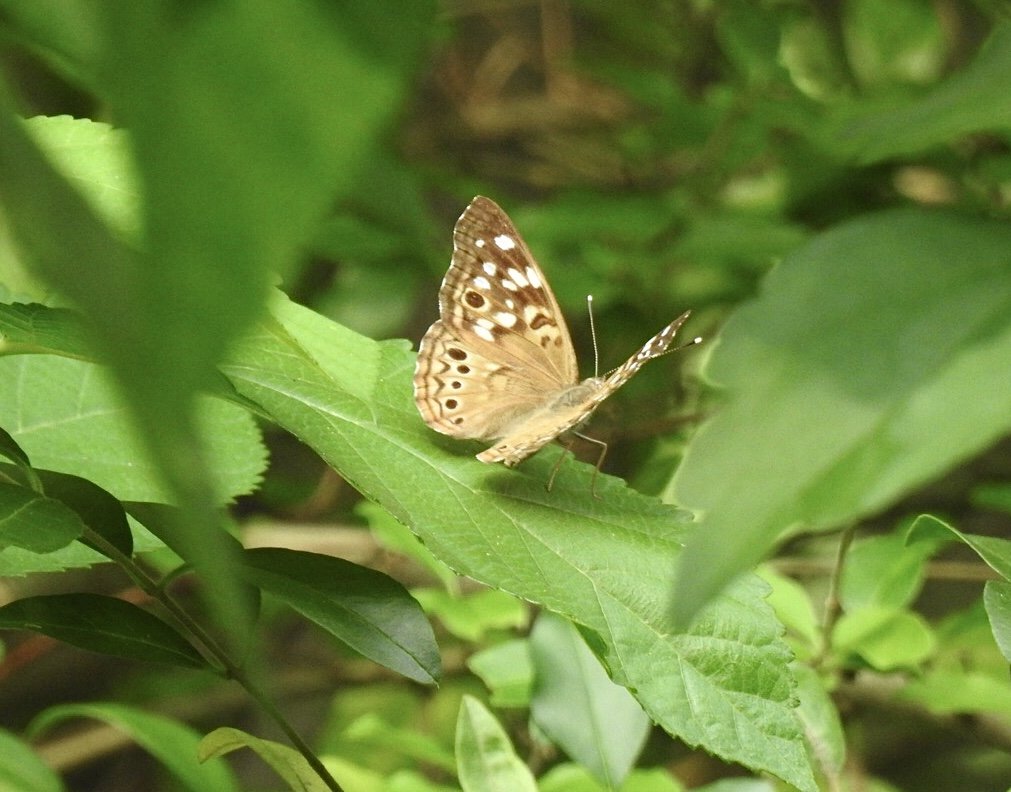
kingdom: Animalia
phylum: Arthropoda
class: Insecta
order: Lepidoptera
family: Nymphalidae
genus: Asterocampa
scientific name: Asterocampa celtis
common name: Hackberry Emperor
